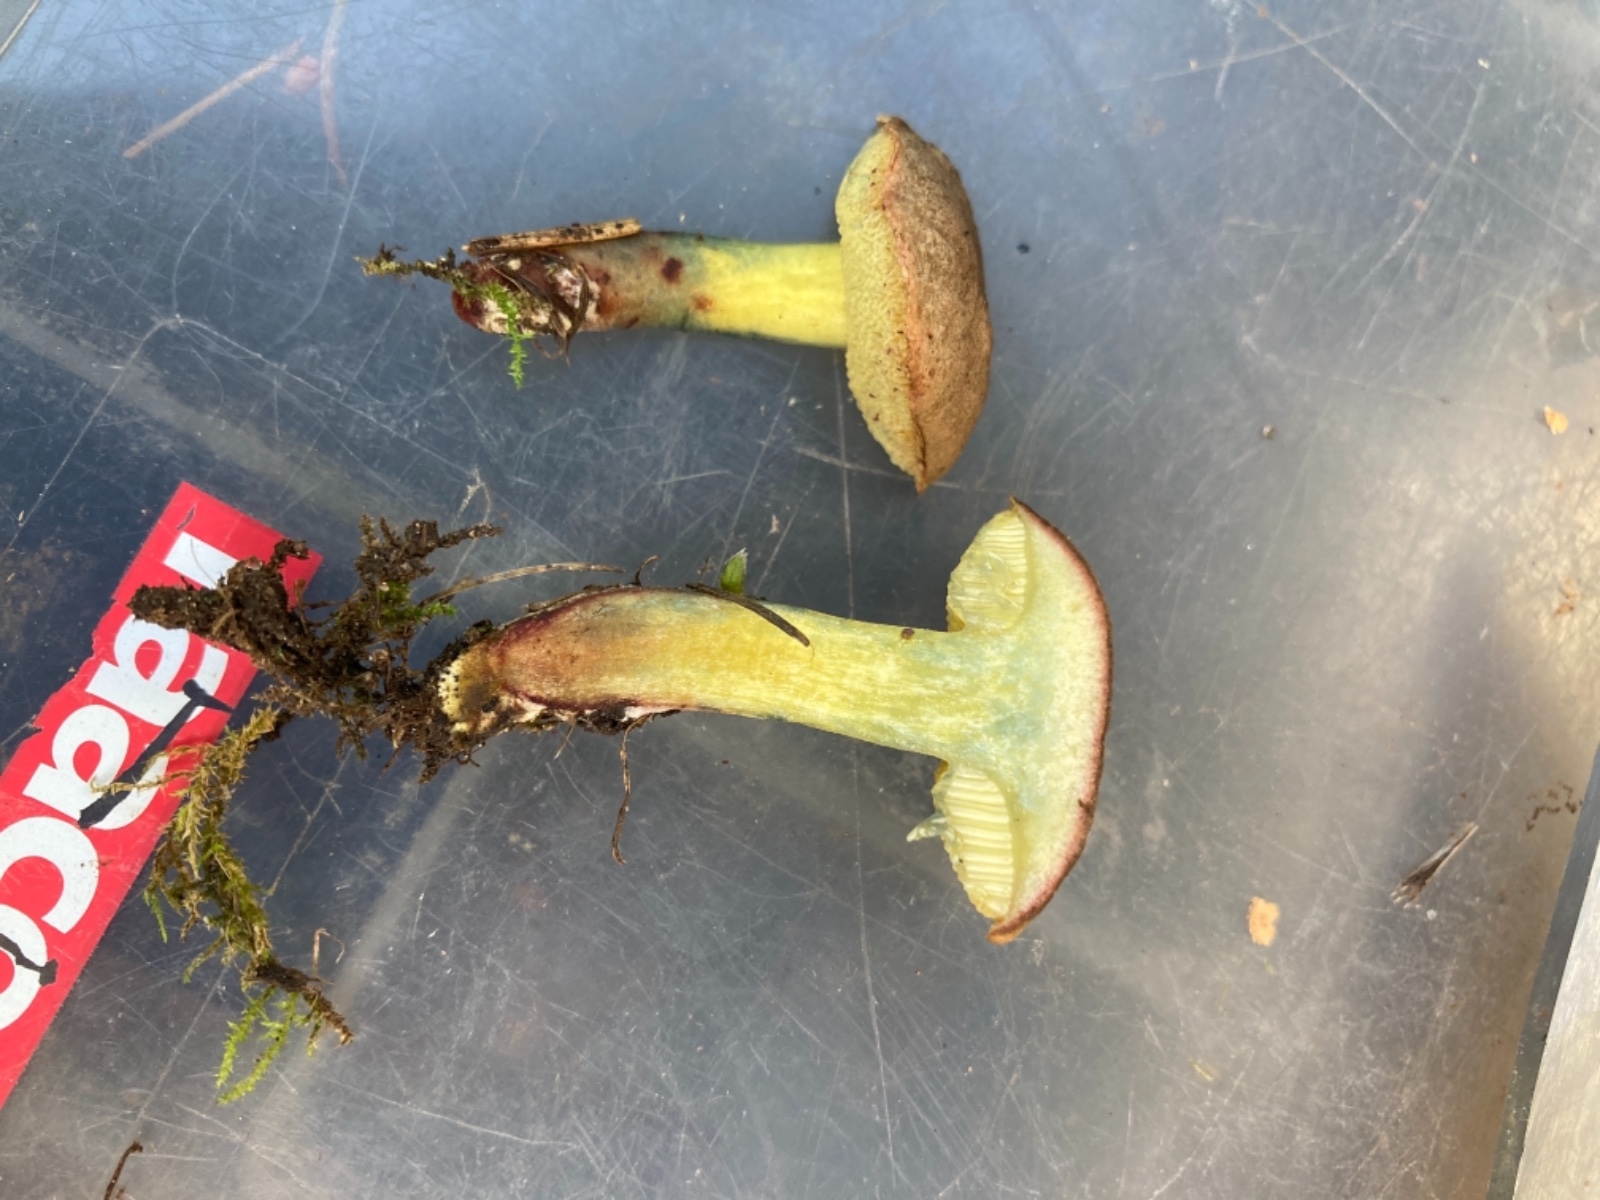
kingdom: Fungi
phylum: Basidiomycota
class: Agaricomycetes
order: Boletales
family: Boletaceae
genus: Xerocomellus
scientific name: Xerocomellus cisalpinus
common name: finsprukken rørhat
